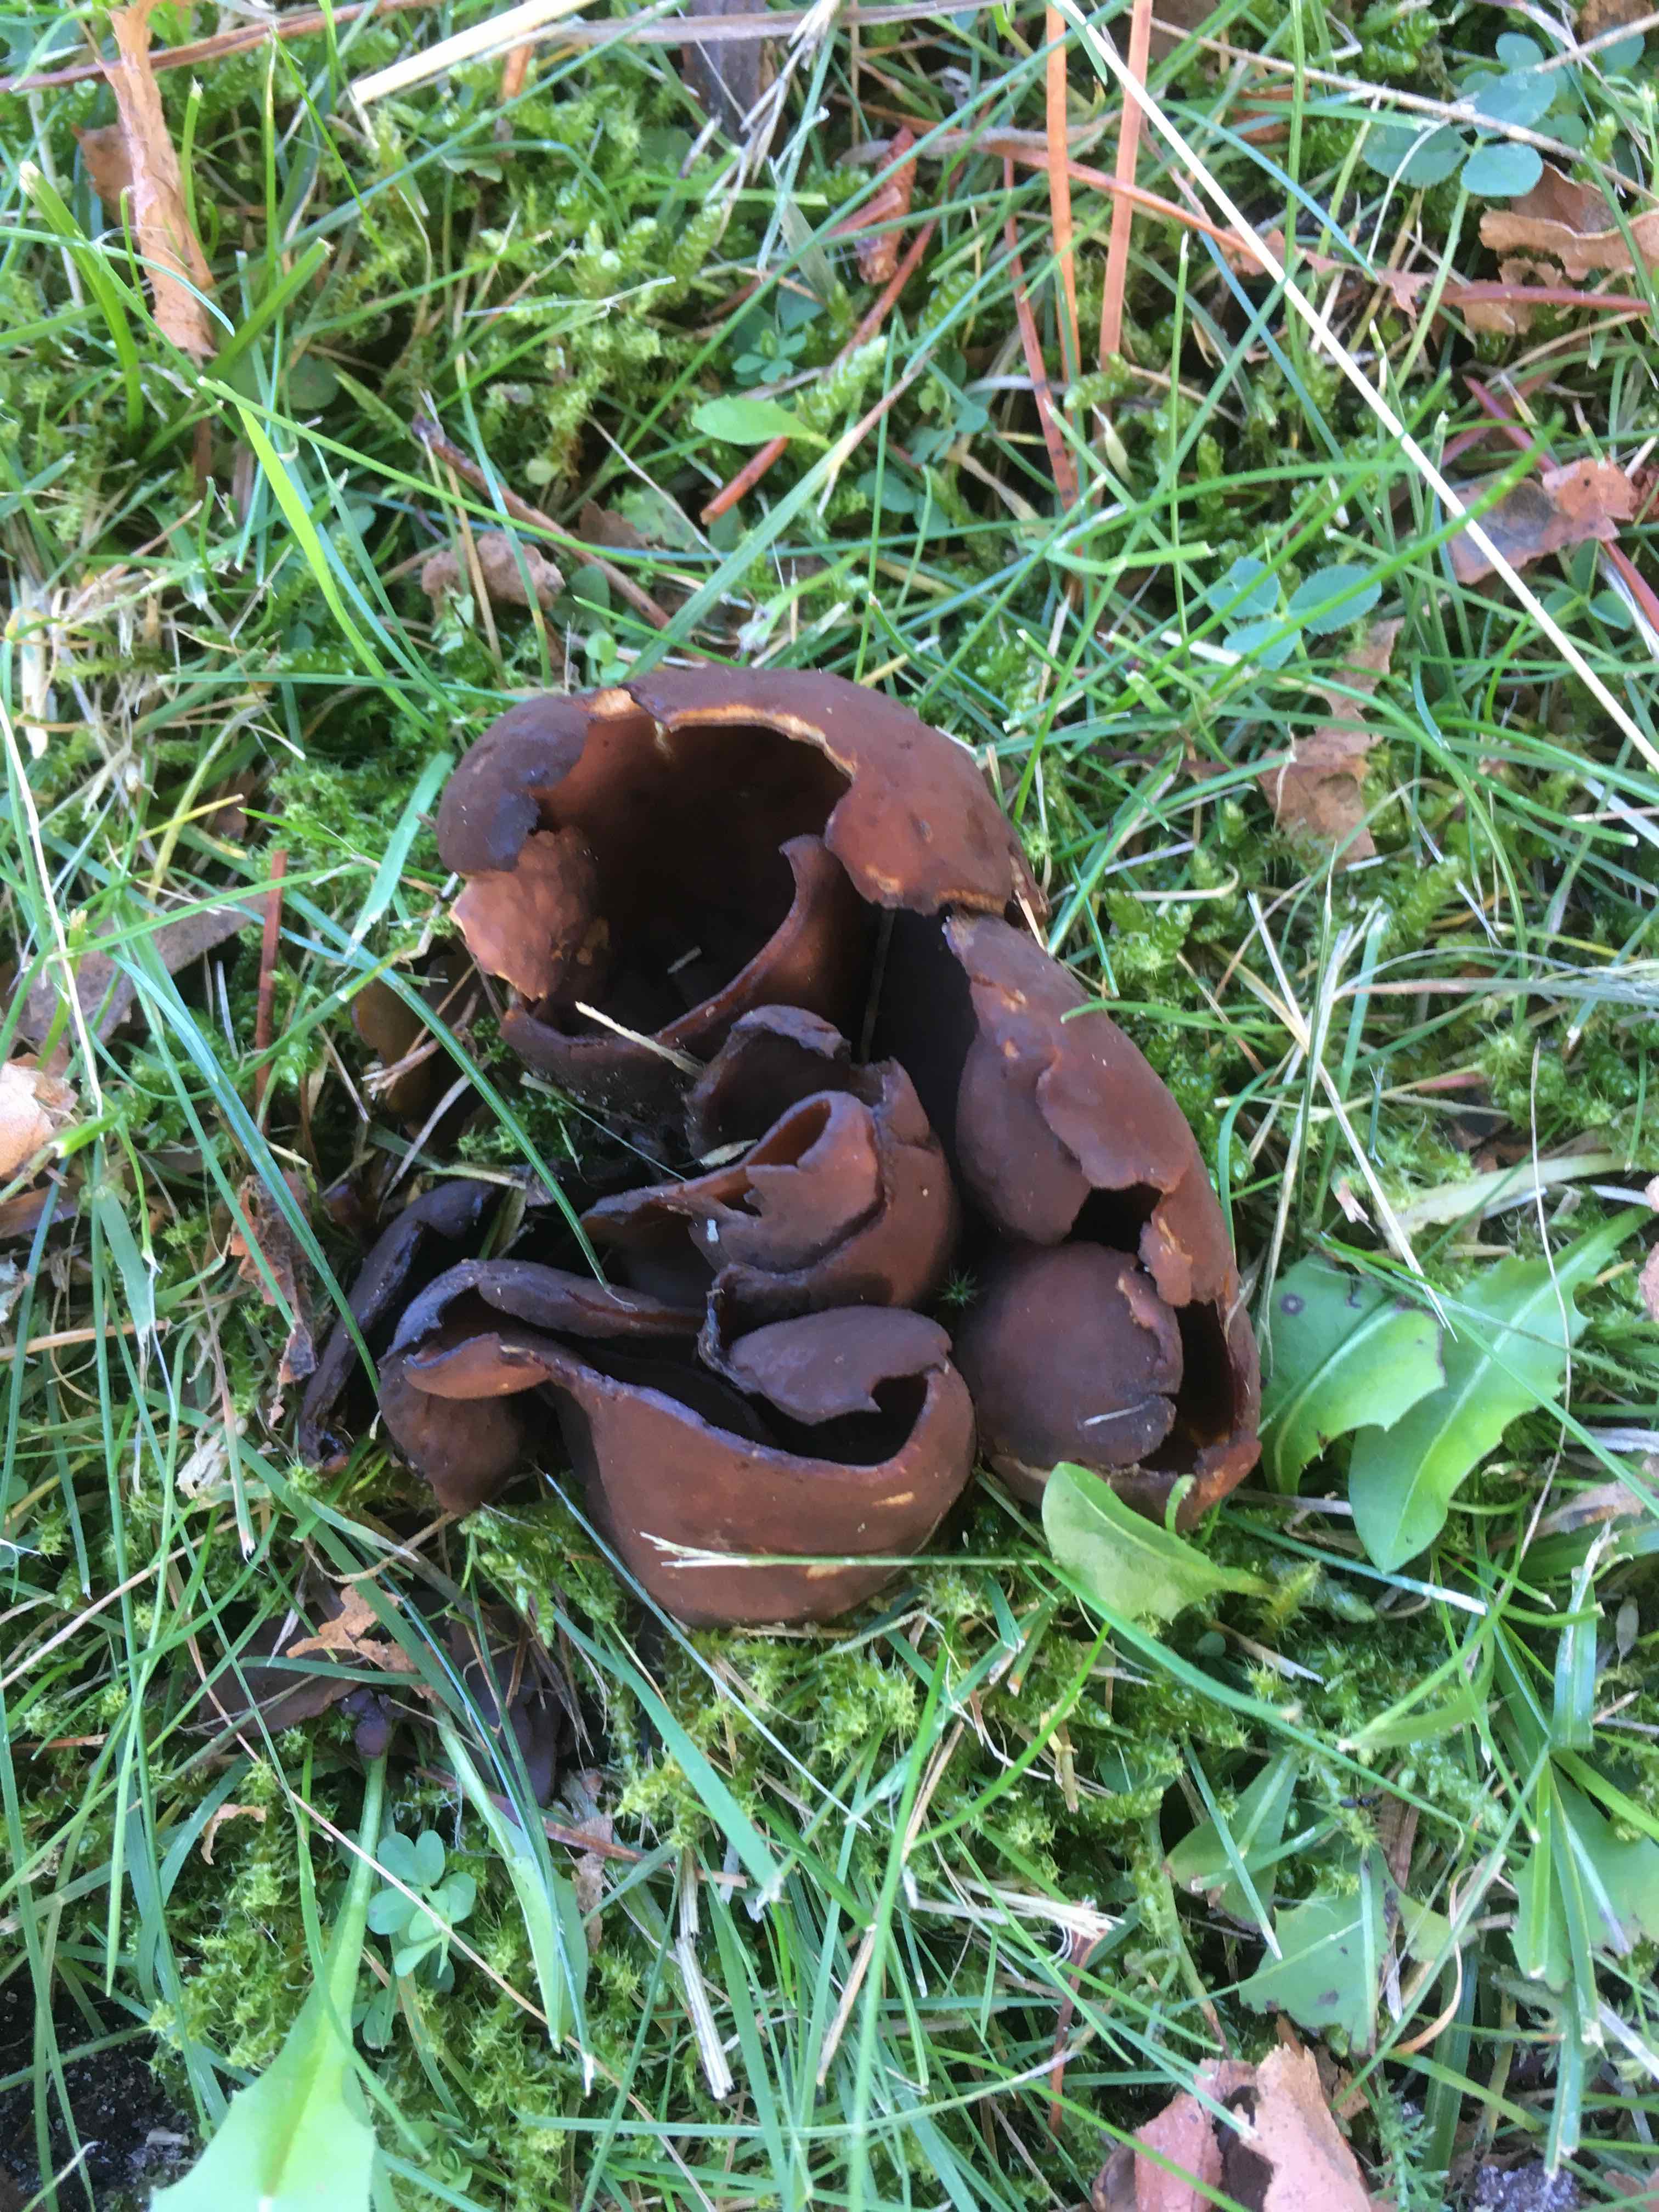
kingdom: Fungi
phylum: Ascomycota
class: Pezizomycetes
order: Pezizales
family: Otideaceae
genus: Otidea
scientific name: Otidea bufonia
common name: brun ørebæger
